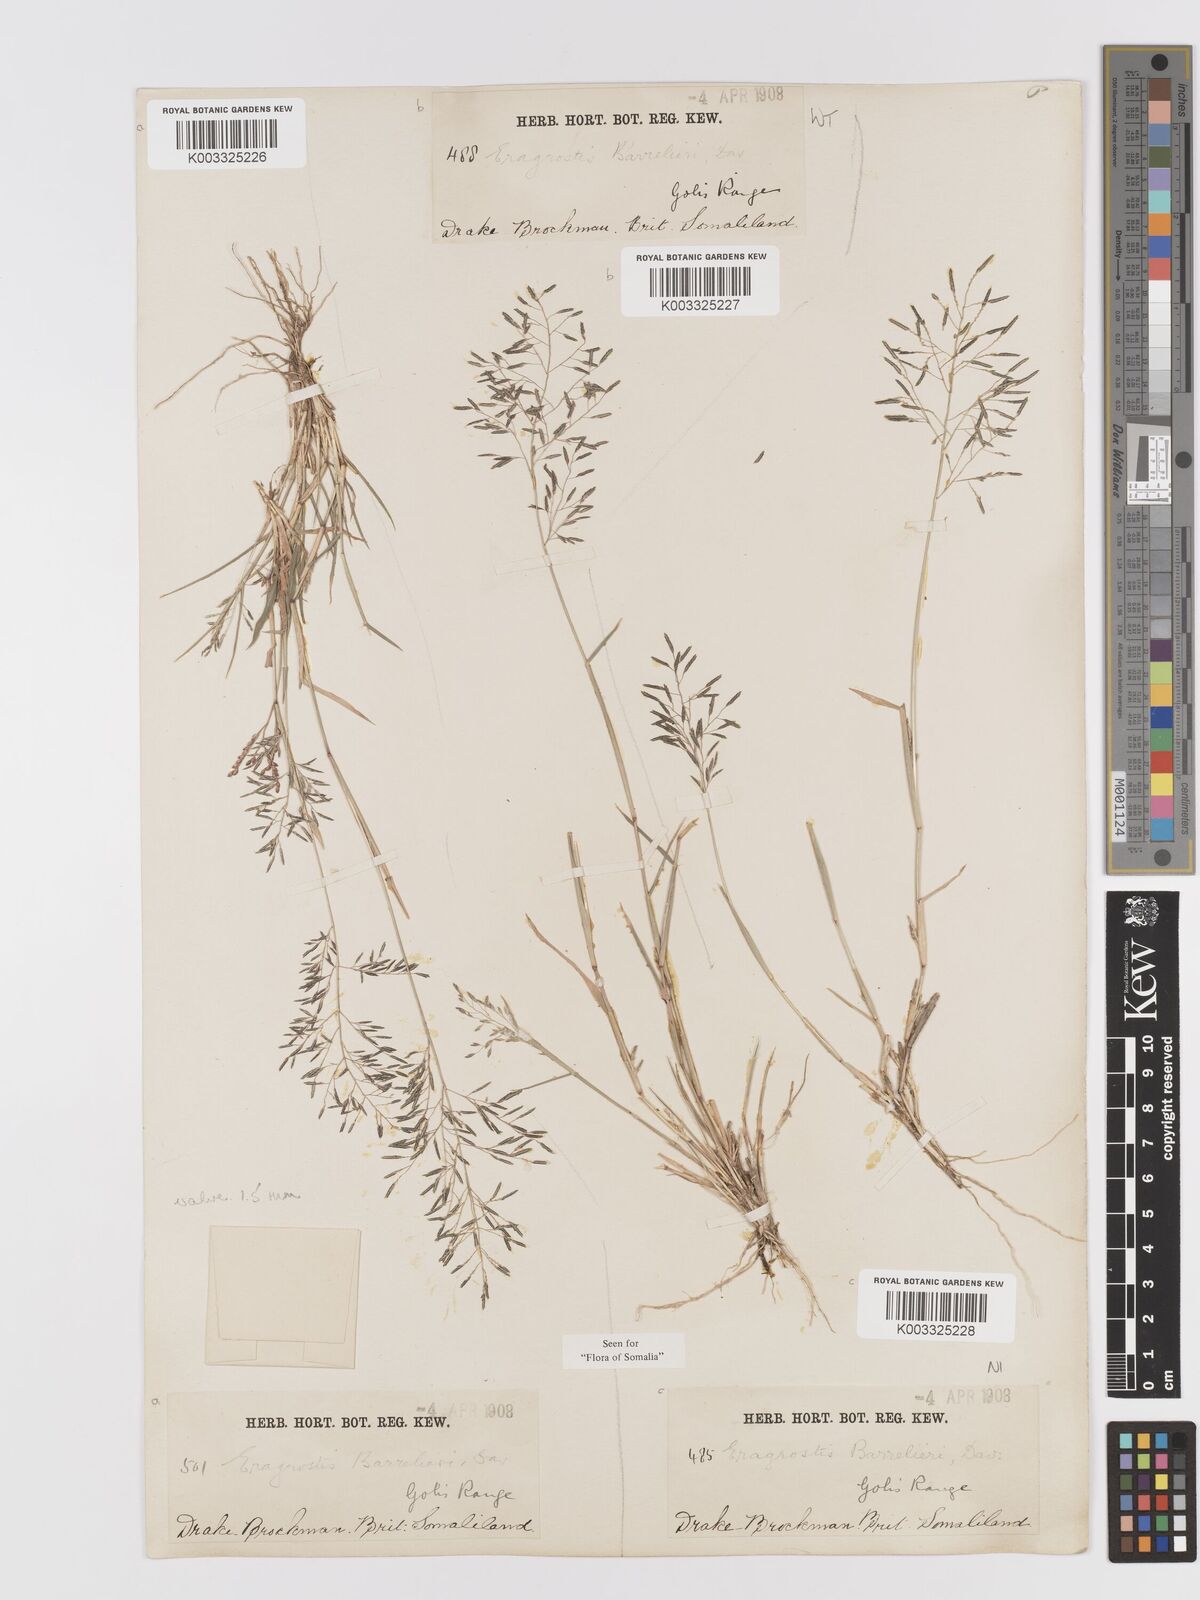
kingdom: Plantae
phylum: Tracheophyta
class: Liliopsida
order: Poales
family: Poaceae
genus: Eragrostis
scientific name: Eragrostis papposa
